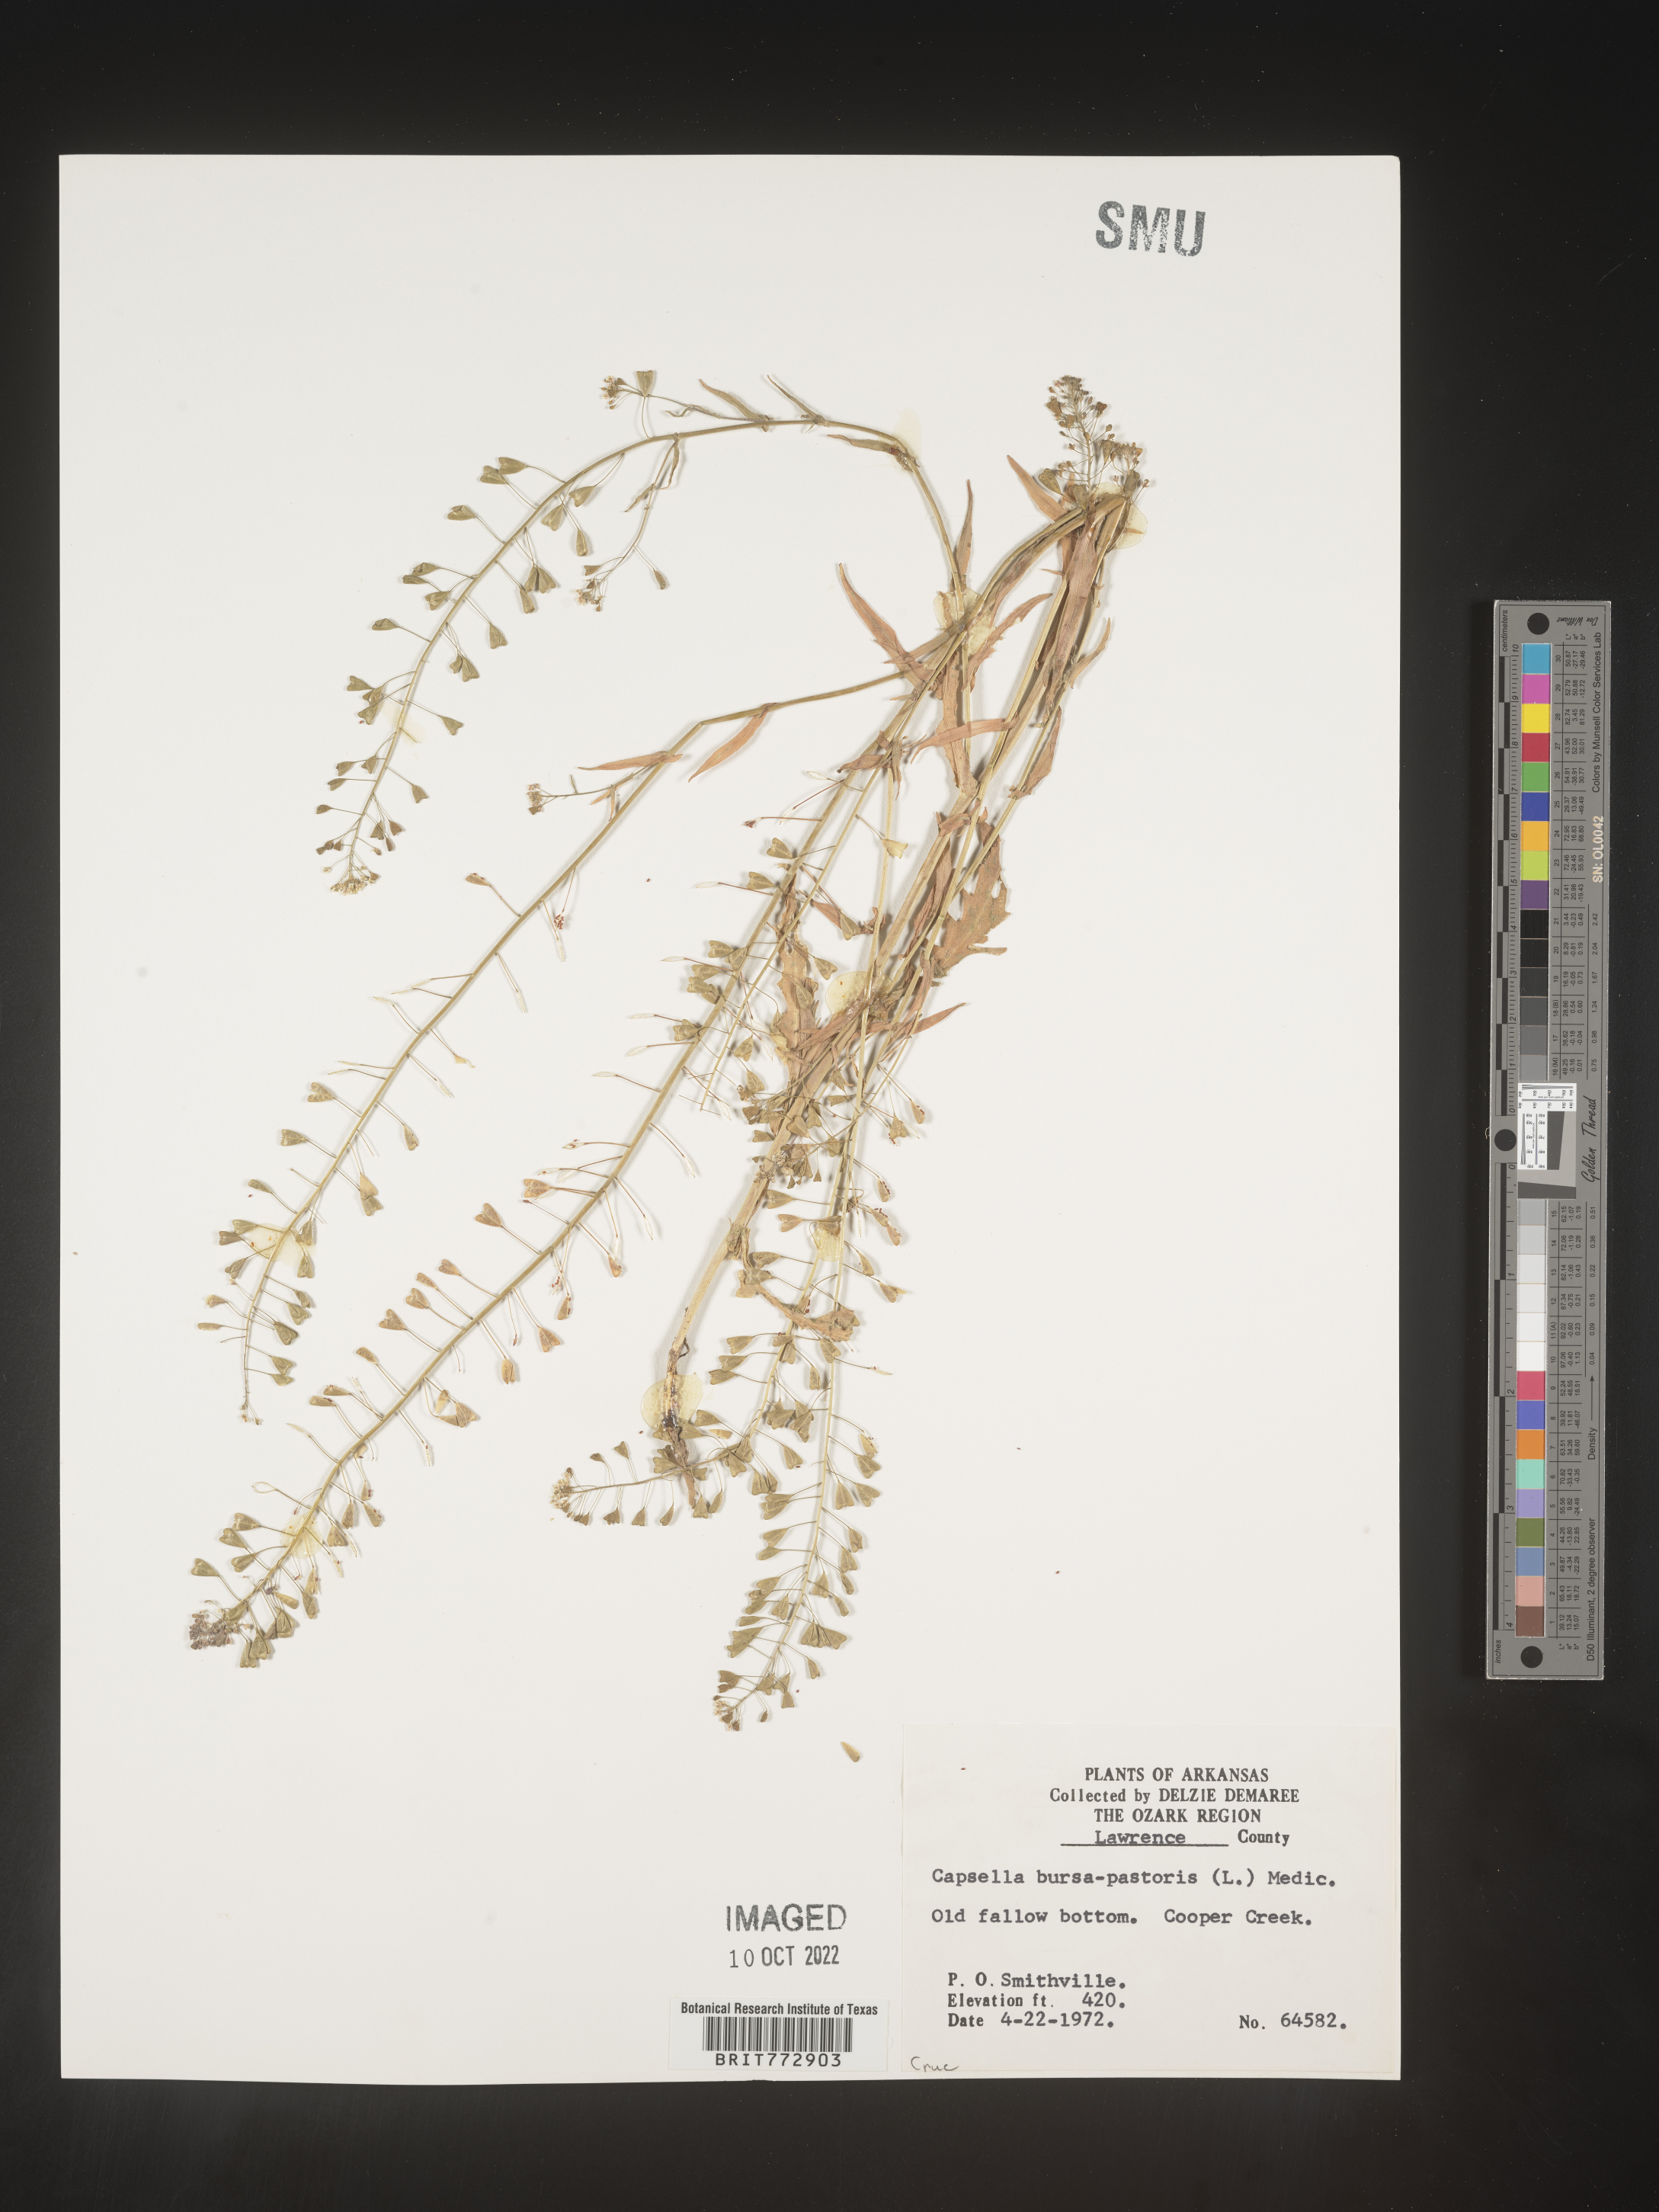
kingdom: Plantae
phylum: Tracheophyta
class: Magnoliopsida
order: Brassicales
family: Brassicaceae
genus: Capsella
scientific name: Capsella bursa-pastoris
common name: Shepherd's purse
